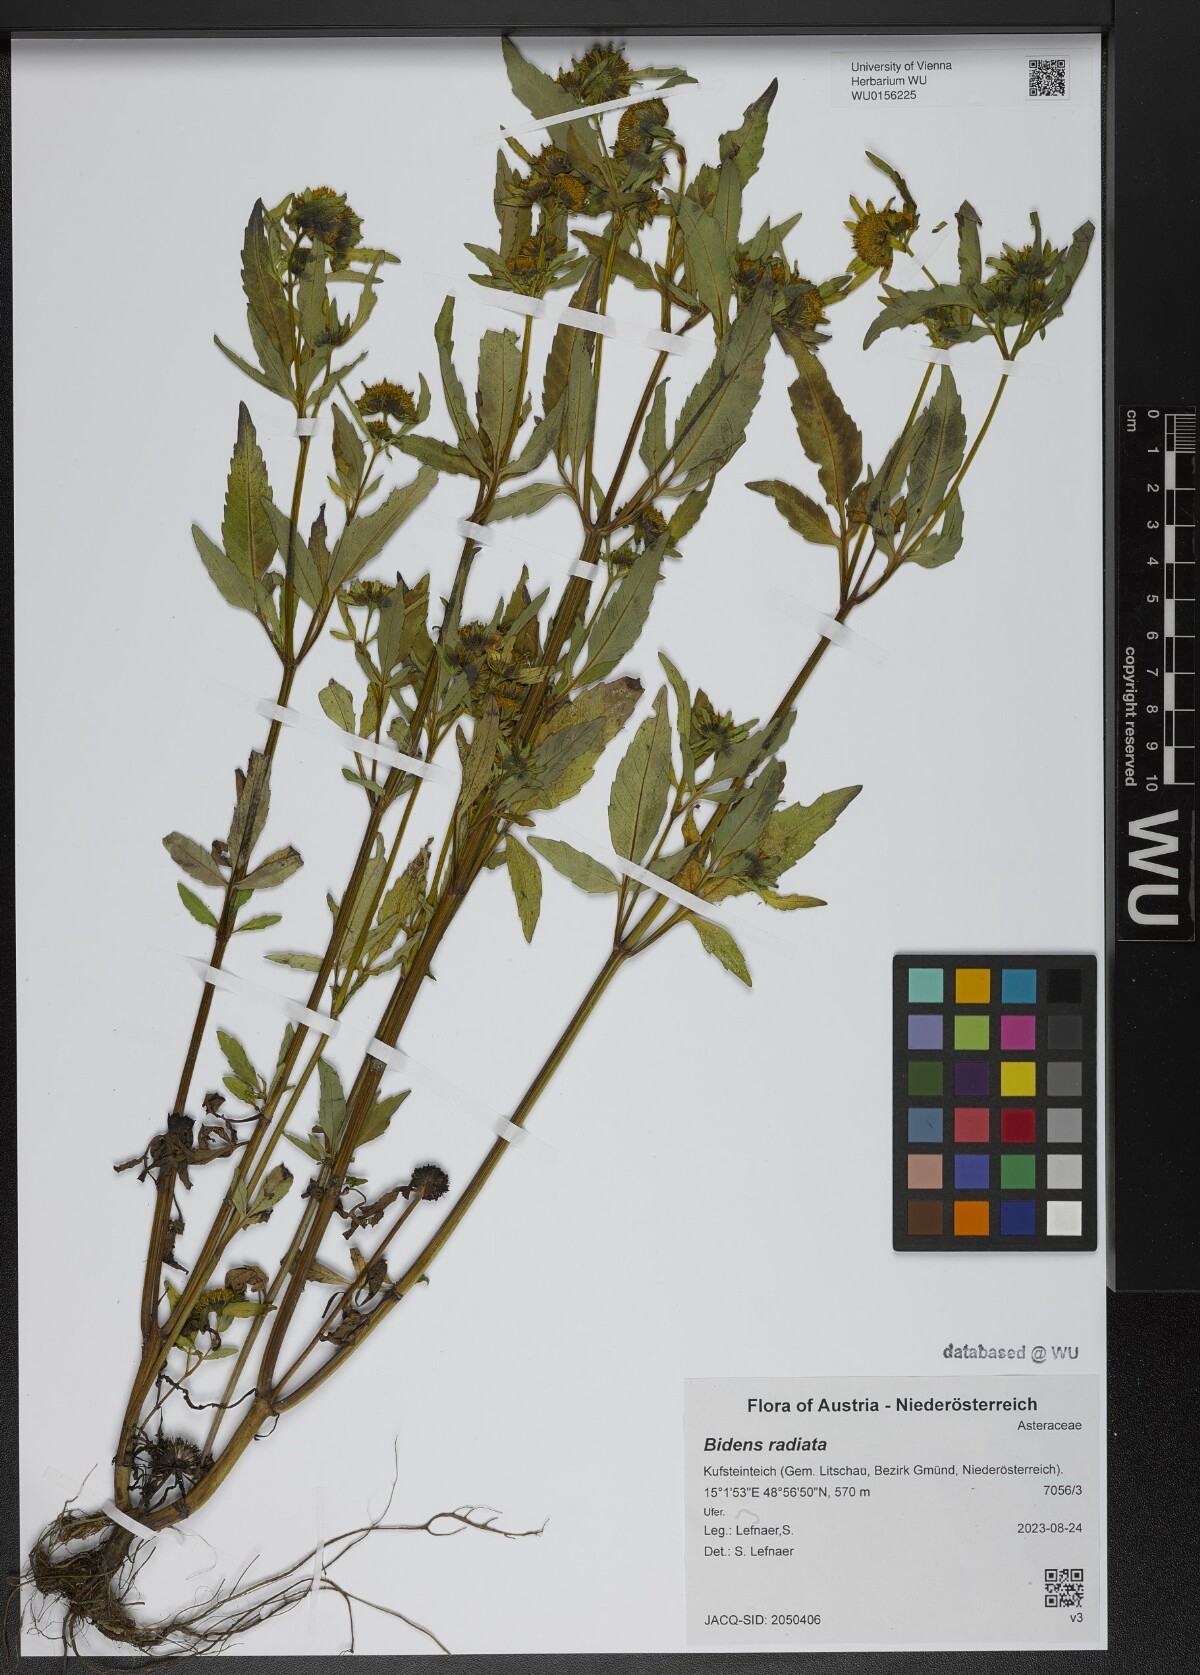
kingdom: Plantae
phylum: Tracheophyta
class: Magnoliopsida
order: Asterales
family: Asteraceae
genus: Bidens
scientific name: Bidens radiata
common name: Radiating bur-marigold
